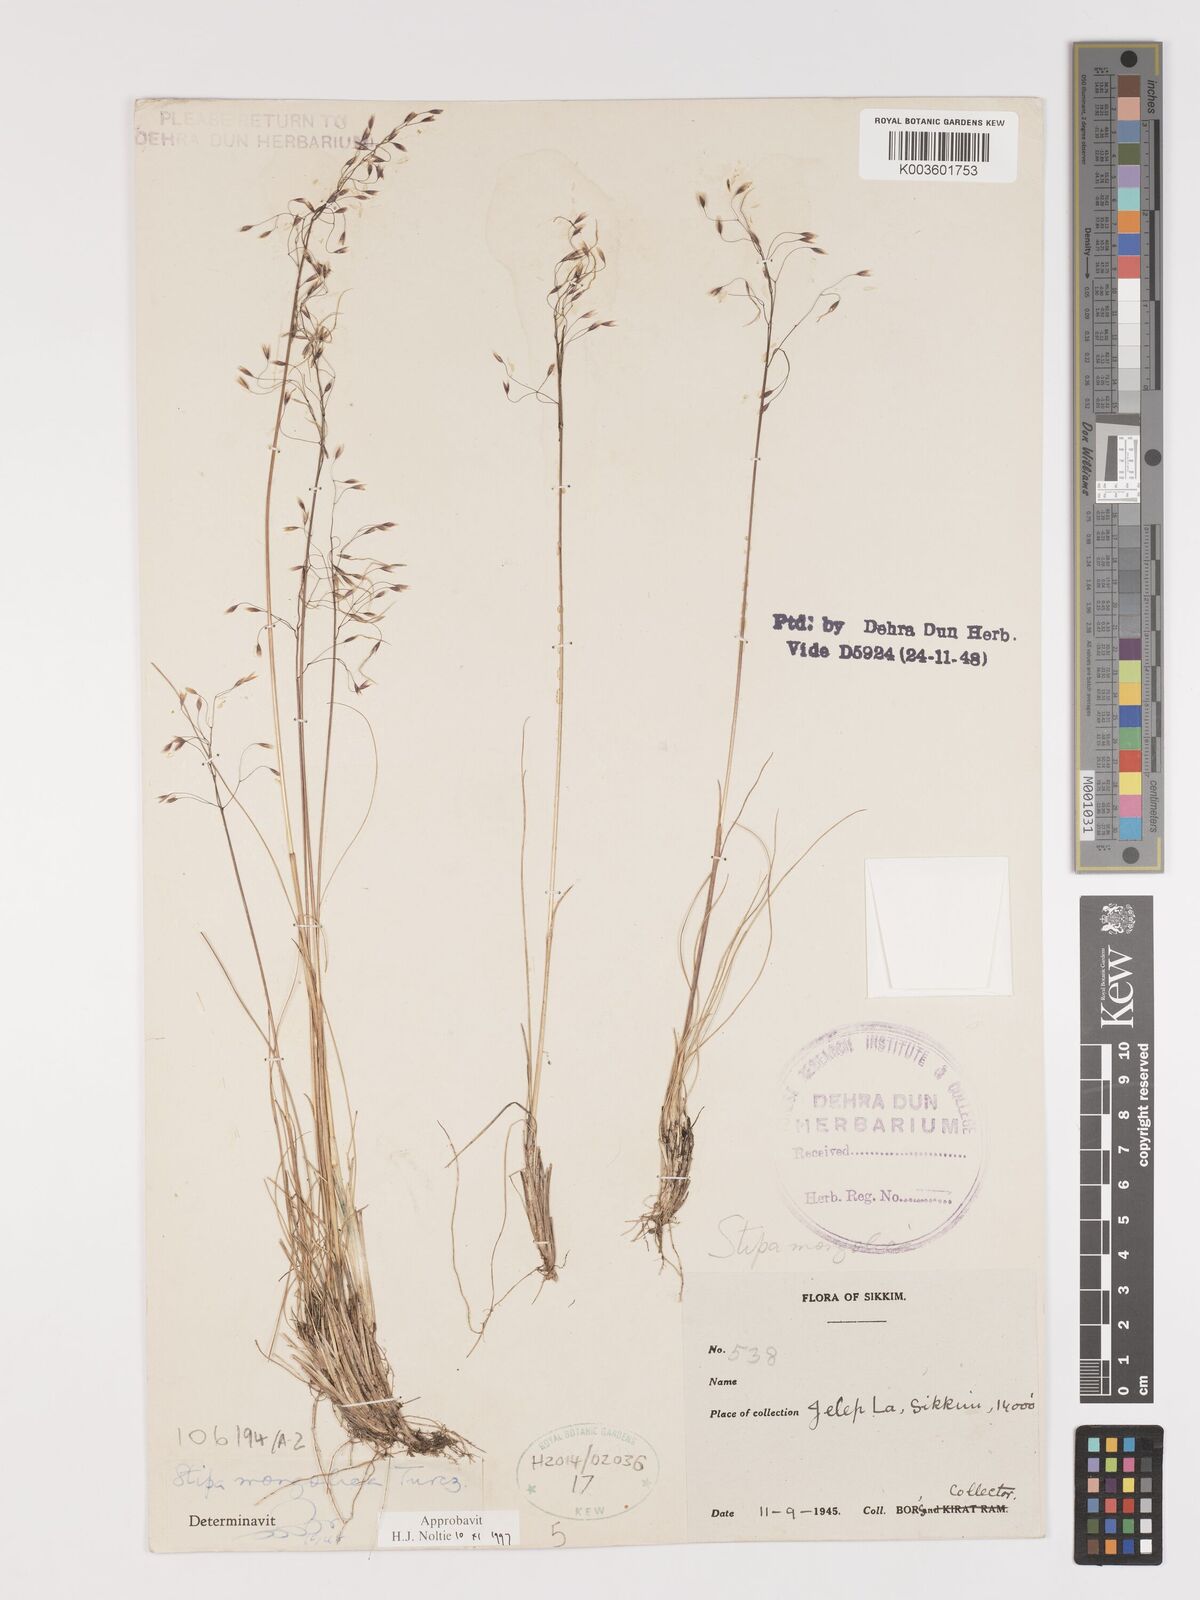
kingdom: Plantae
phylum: Tracheophyta
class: Liliopsida
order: Poales
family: Poaceae
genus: Ptilagrostis
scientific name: Ptilagrostis mongholica
